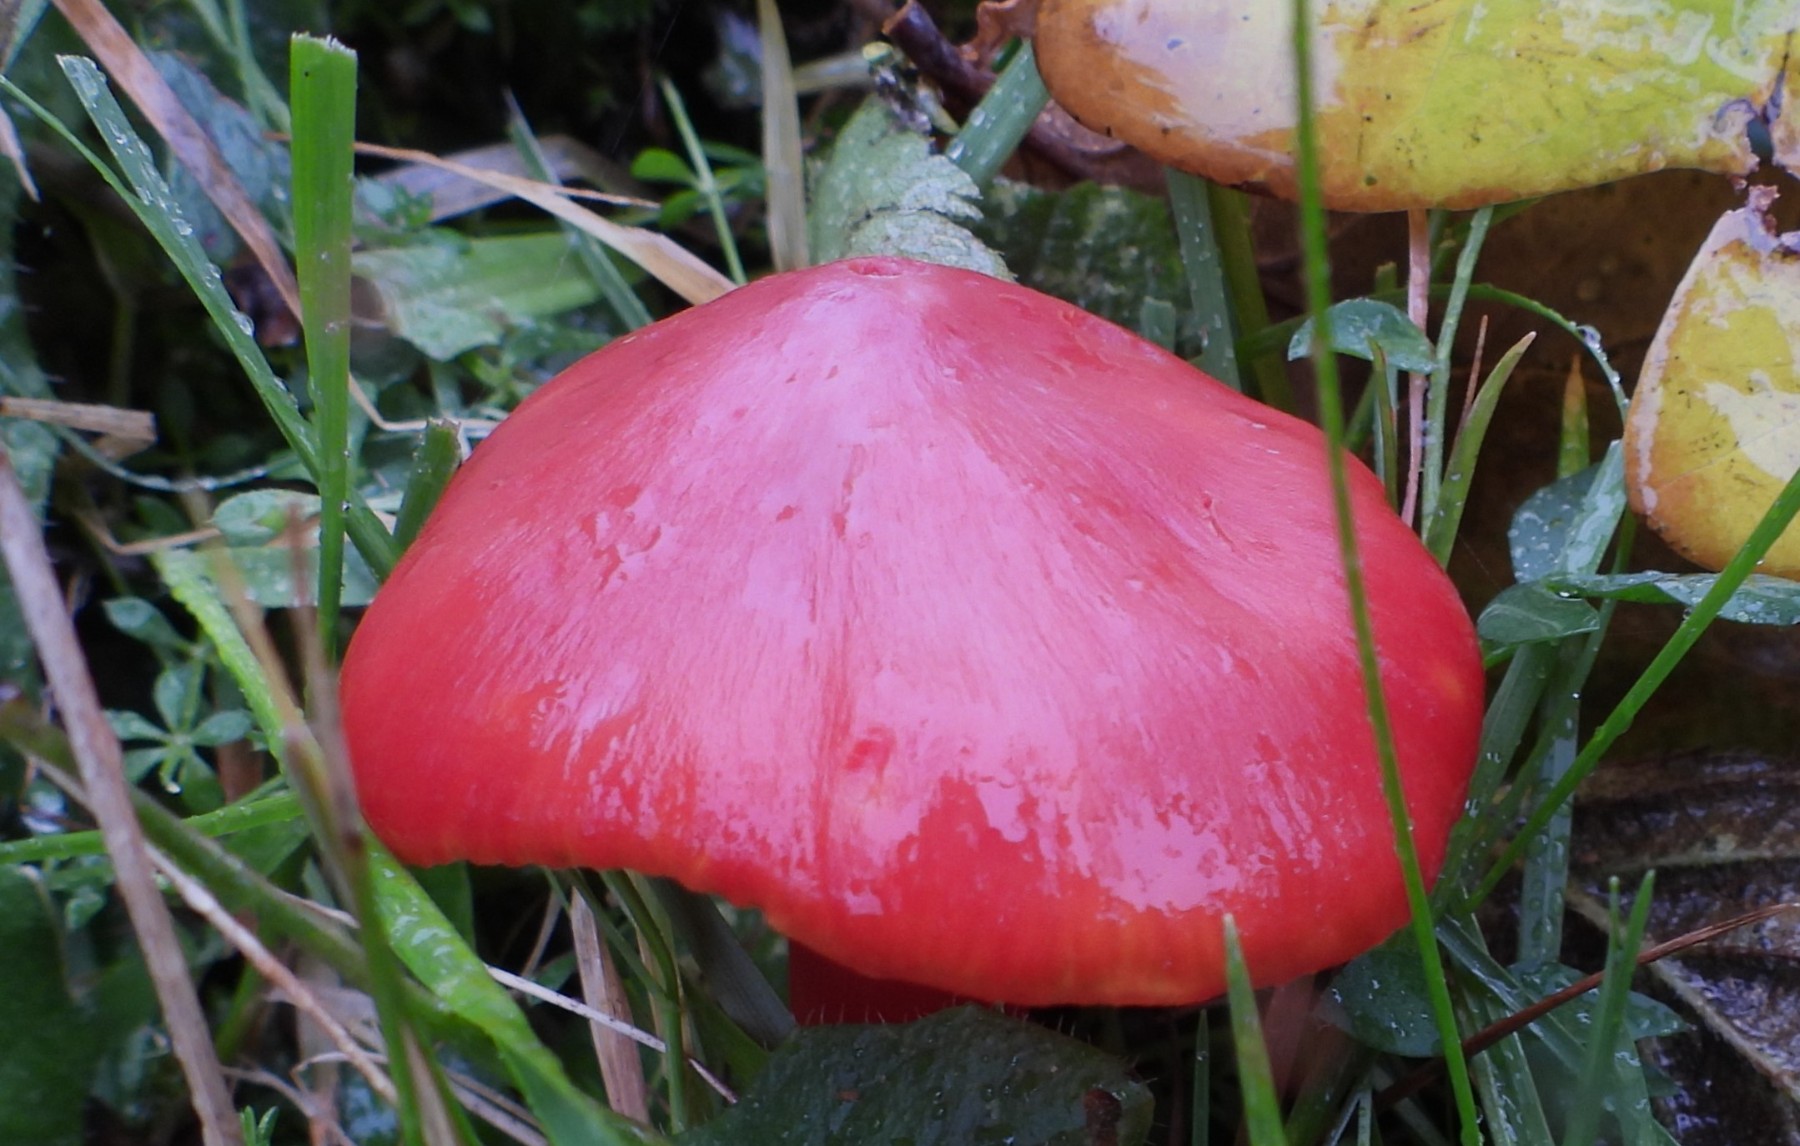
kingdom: Fungi
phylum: Basidiomycota
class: Agaricomycetes
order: Agaricales
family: Hygrophoraceae
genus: Hygrocybe
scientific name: Hygrocybe splendidissima
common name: knaldrød vokshat
